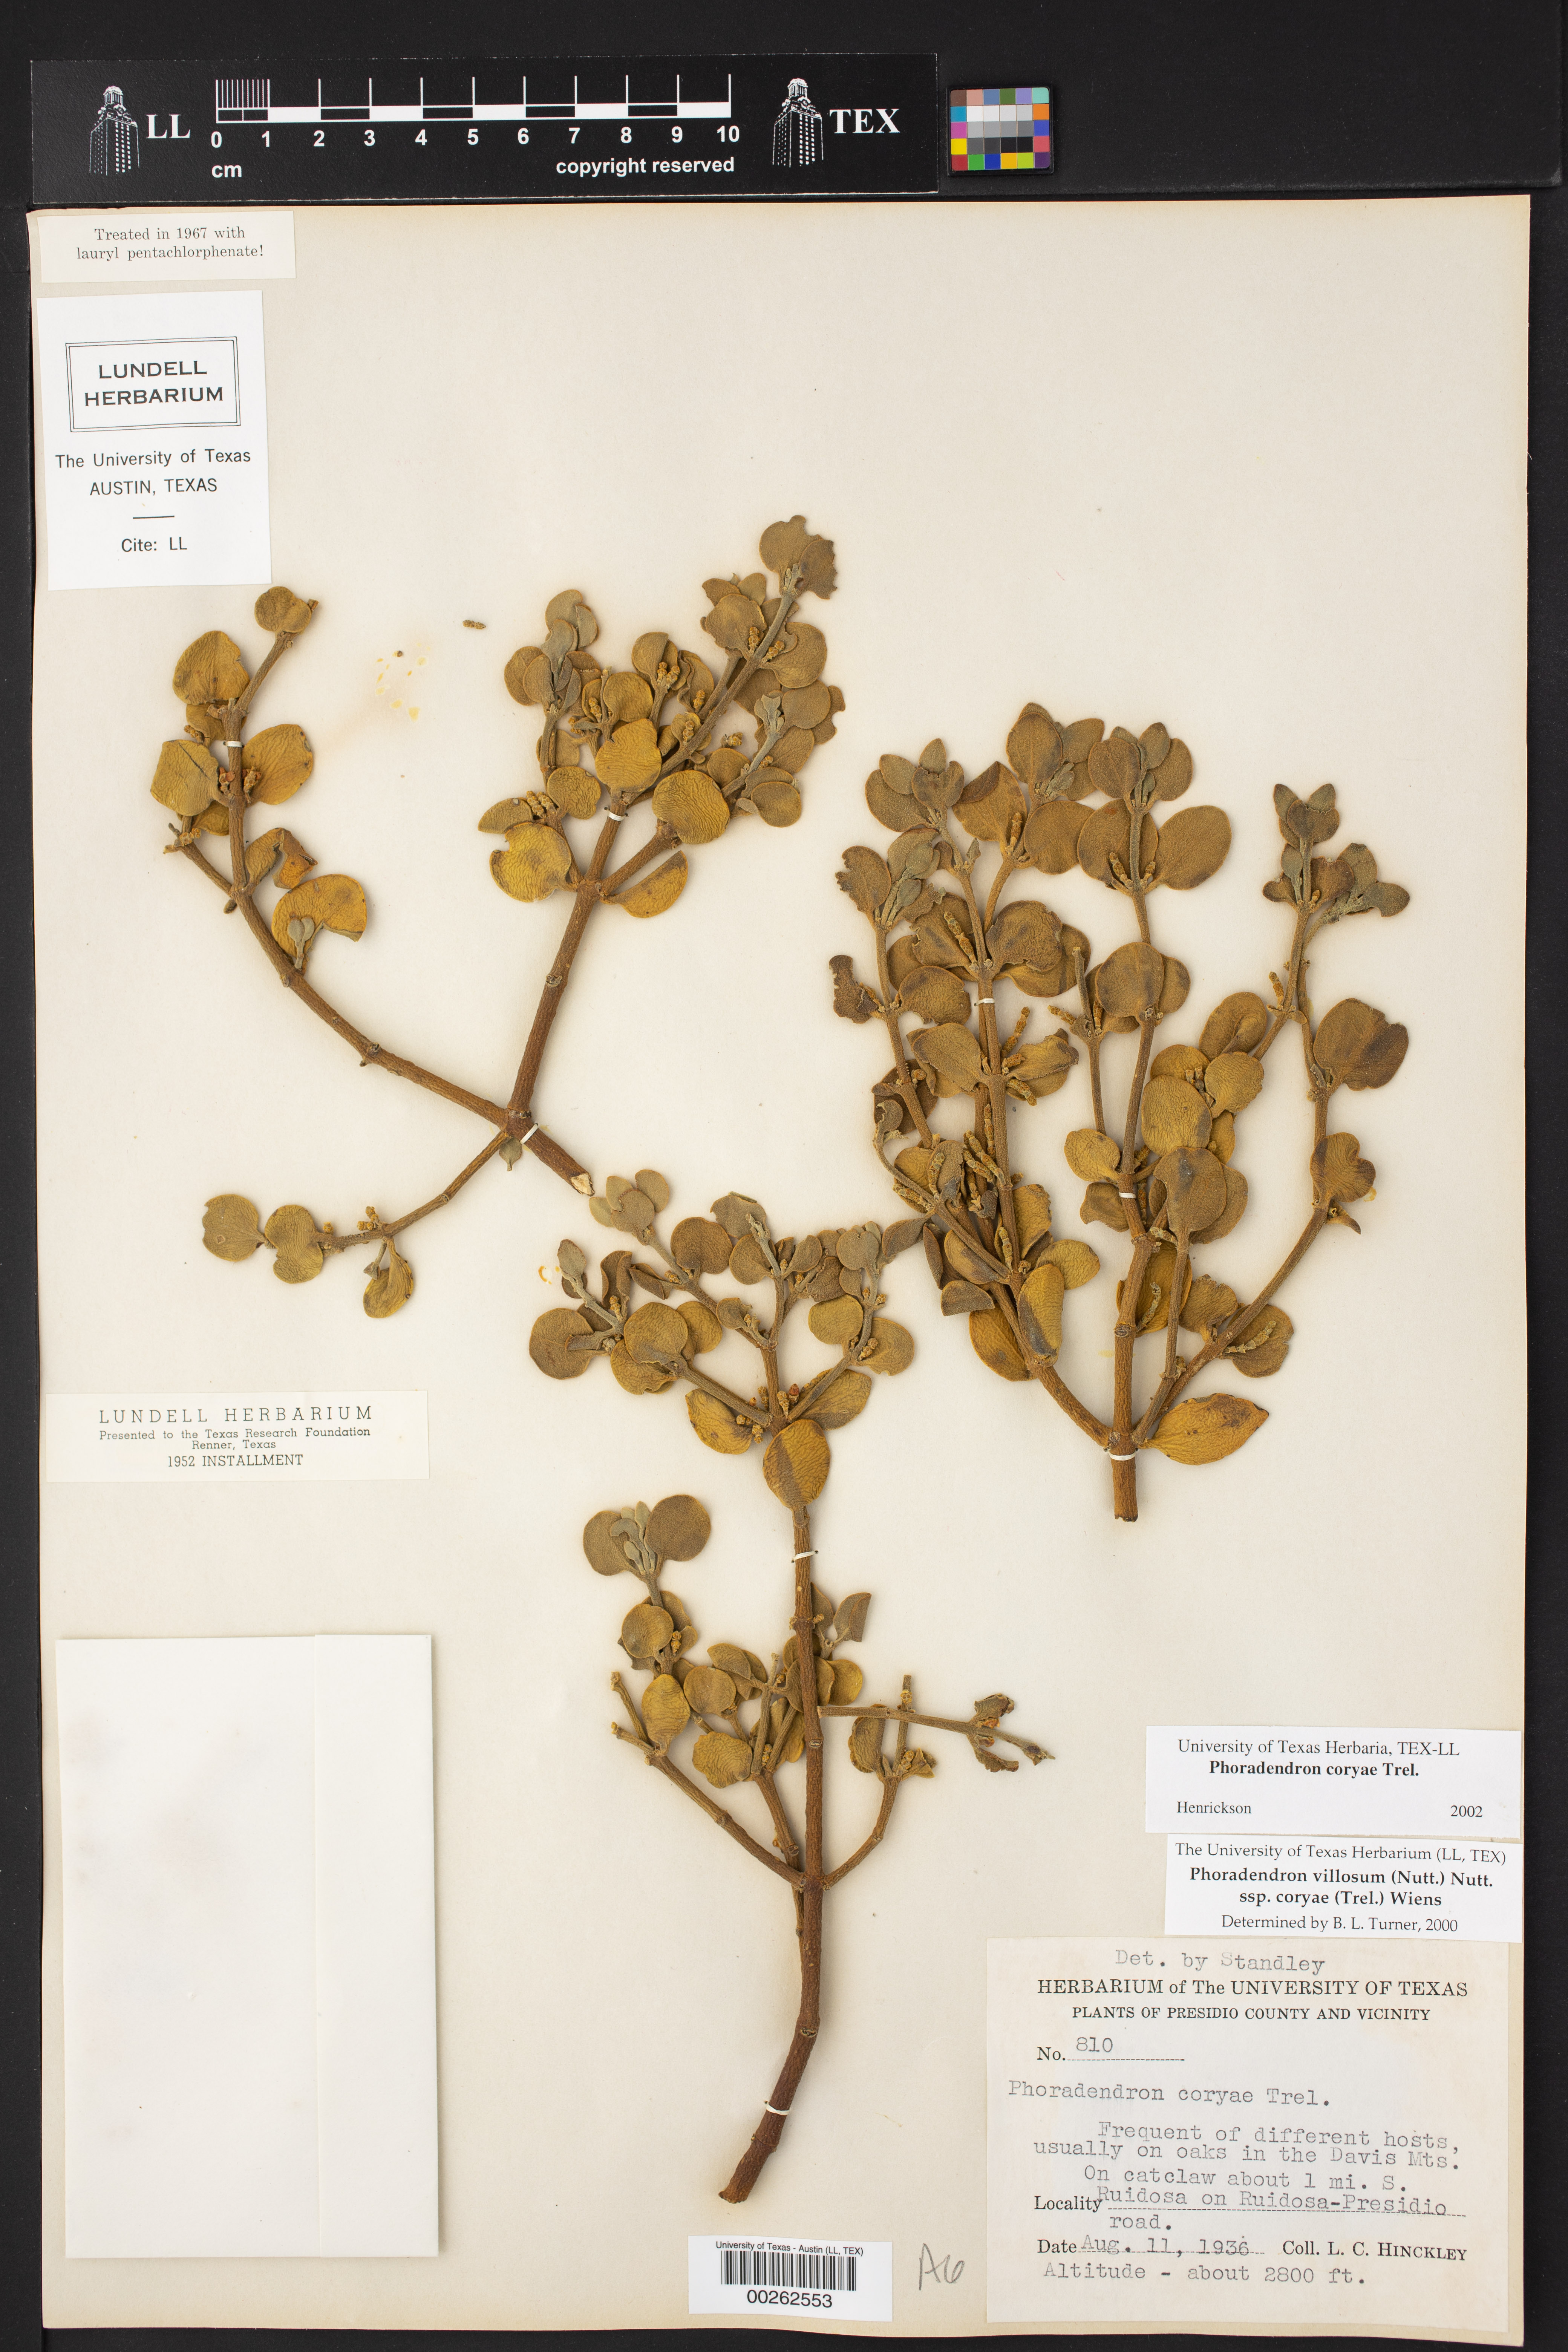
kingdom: Plantae
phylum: Tracheophyta
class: Magnoliopsida
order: Santalales
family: Viscaceae
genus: Phoradendron
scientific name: Phoradendron coryae
